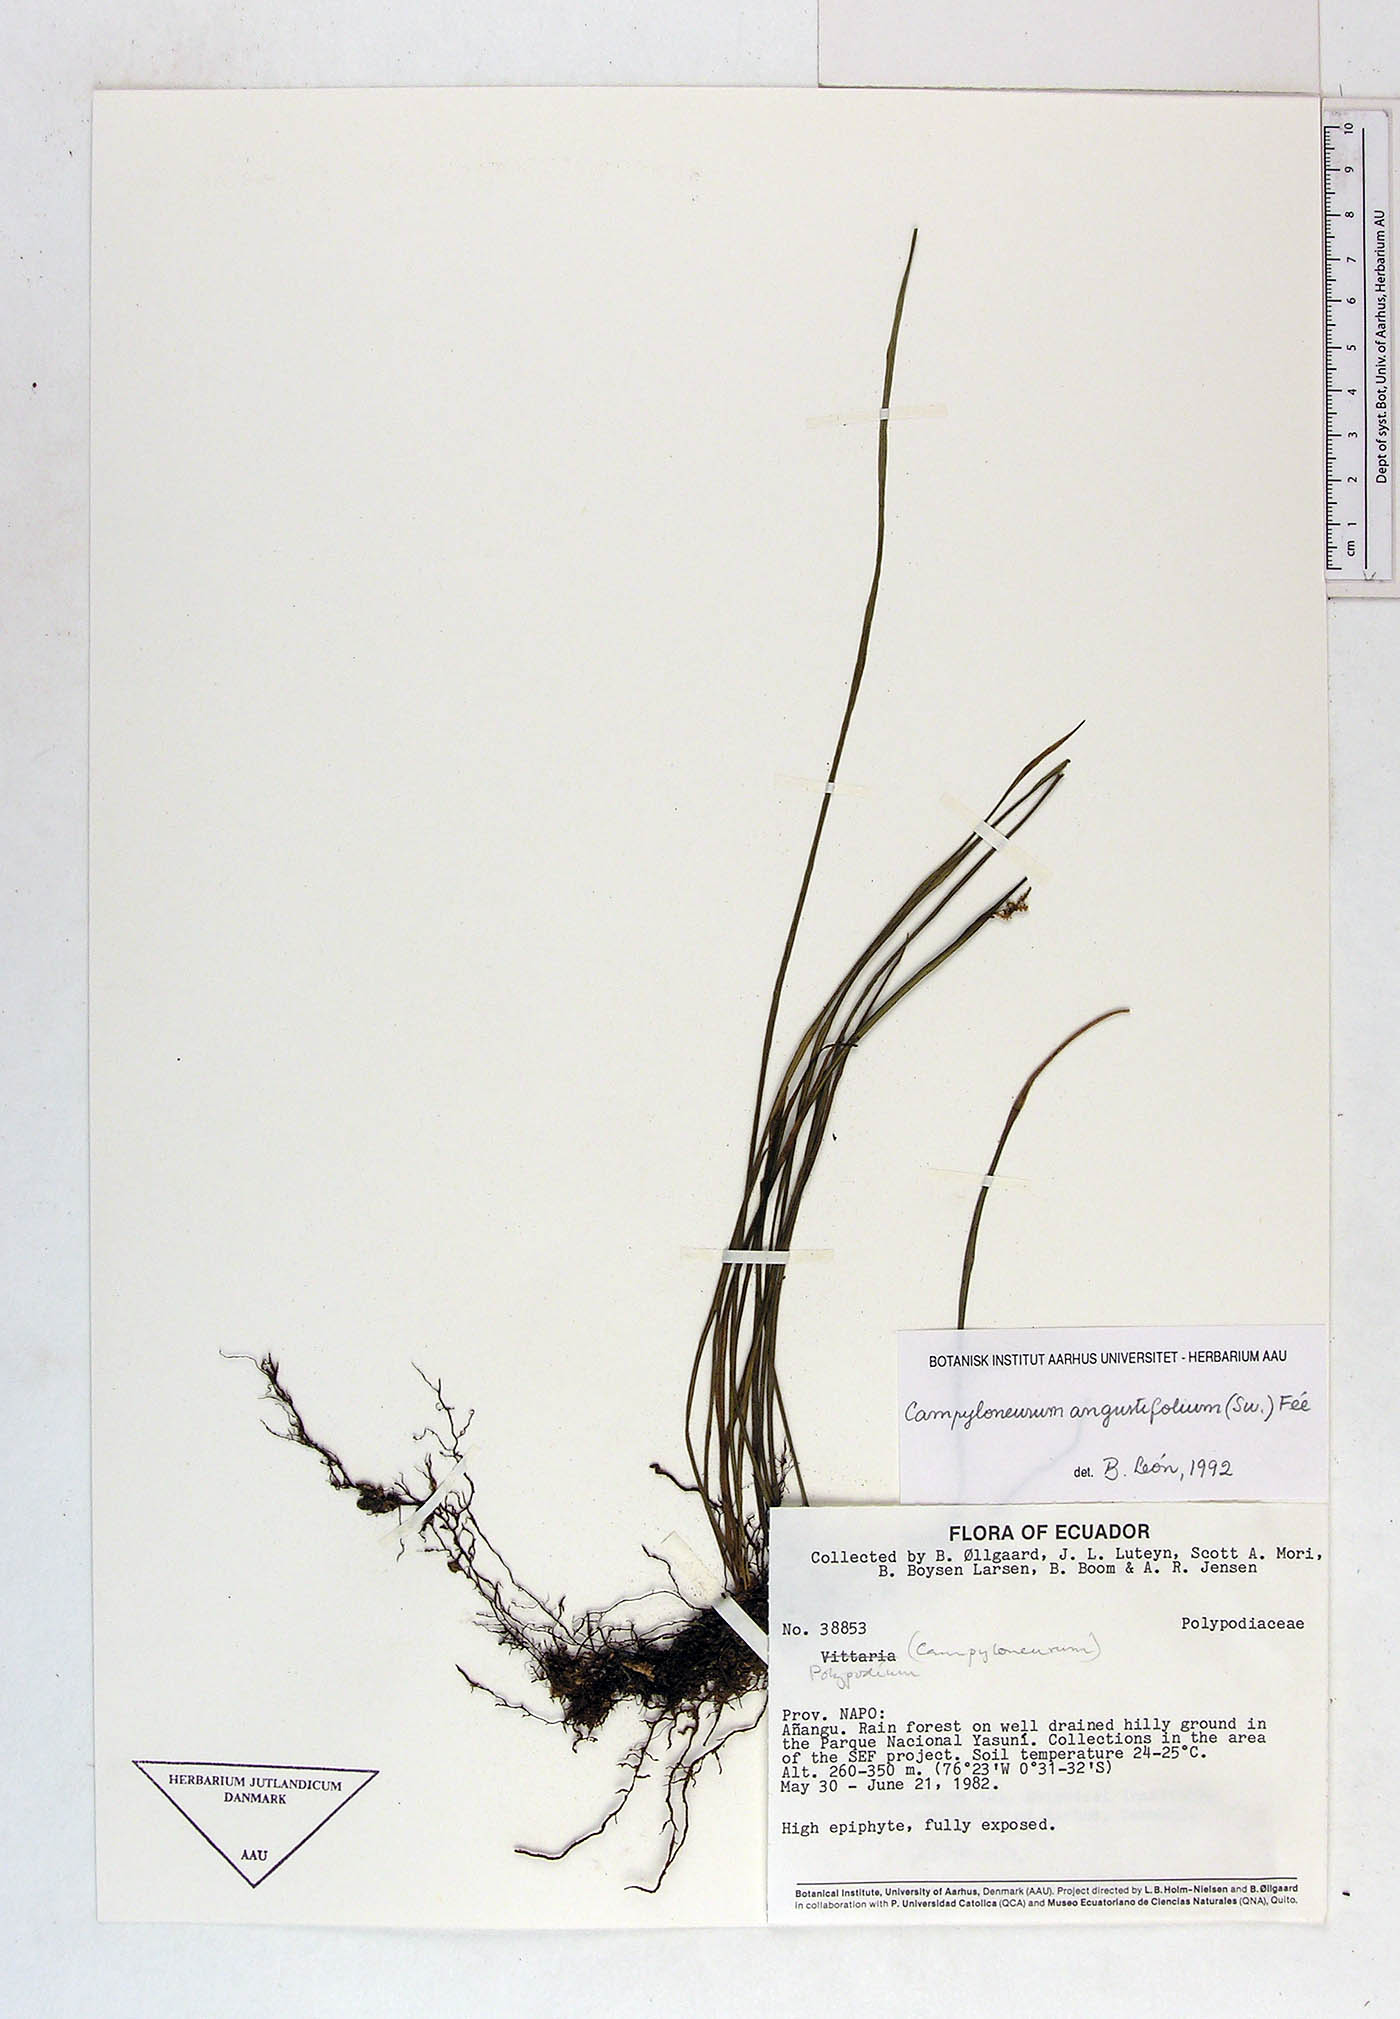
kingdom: Plantae
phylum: Tracheophyta
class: Polypodiopsida
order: Polypodiales
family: Polypodiaceae
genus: Campyloneurum
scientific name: Campyloneurum angustifolium
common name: Narrow-leaf strap fern
